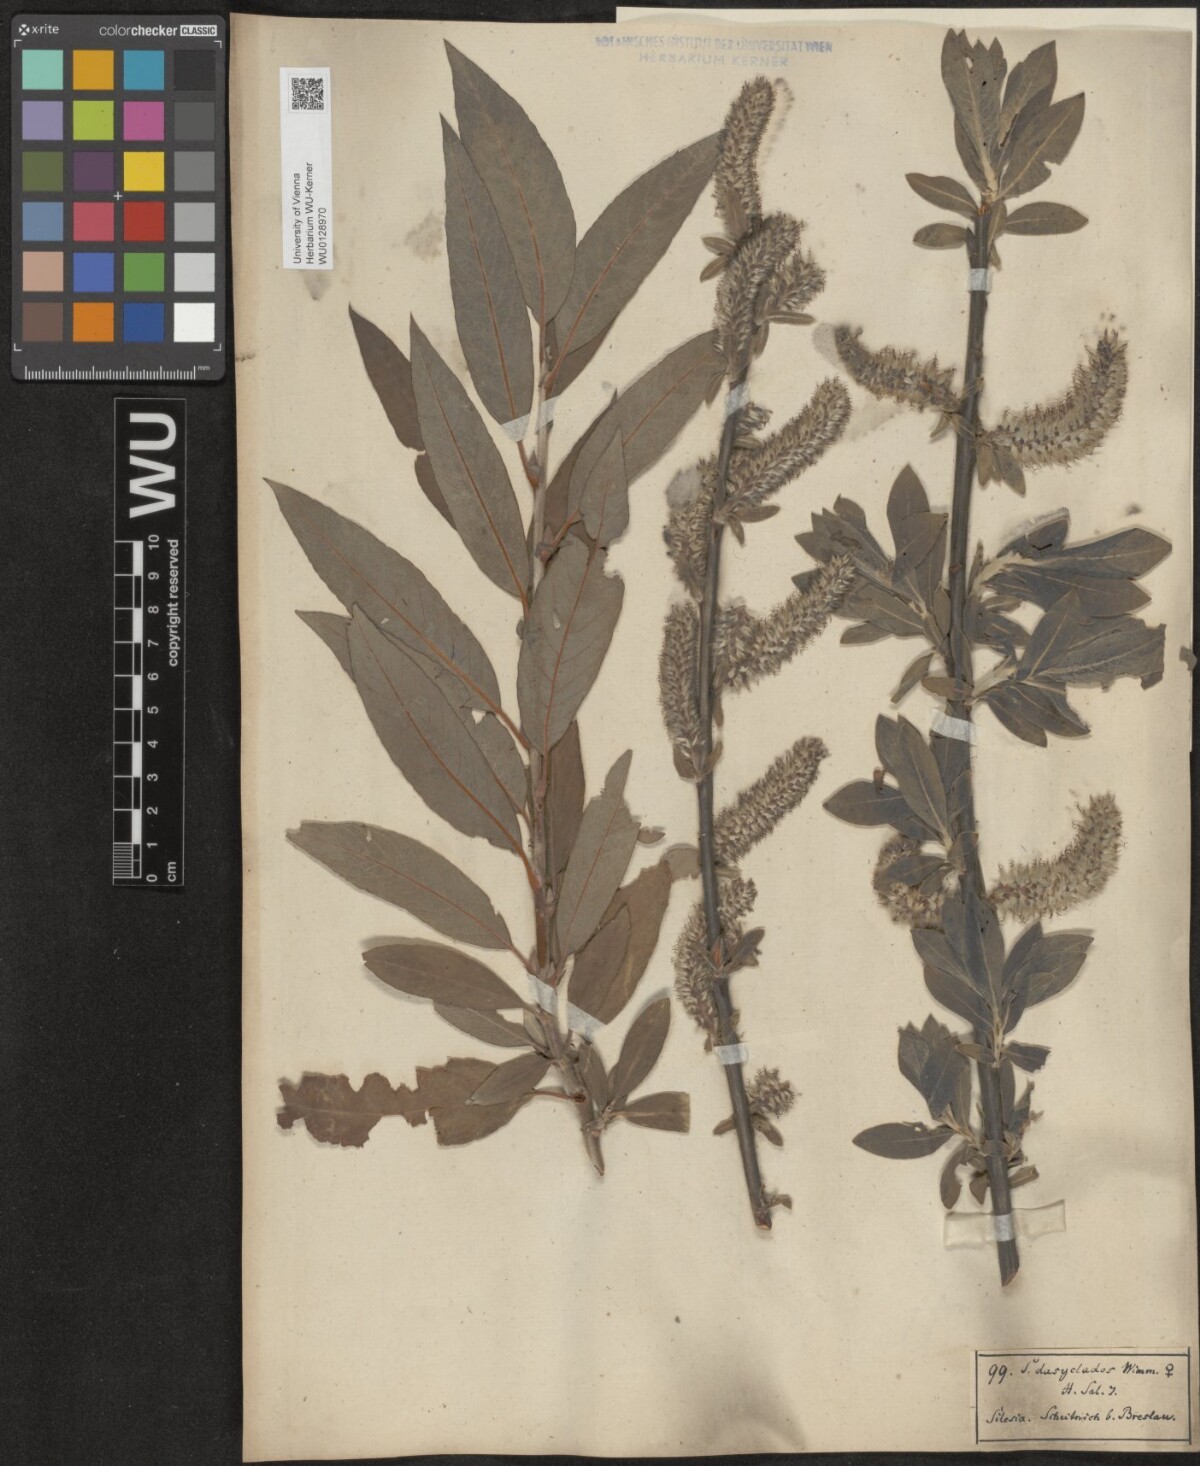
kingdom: Plantae
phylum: Tracheophyta
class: Magnoliopsida
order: Malpighiales
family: Salicaceae
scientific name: Salicaceae
